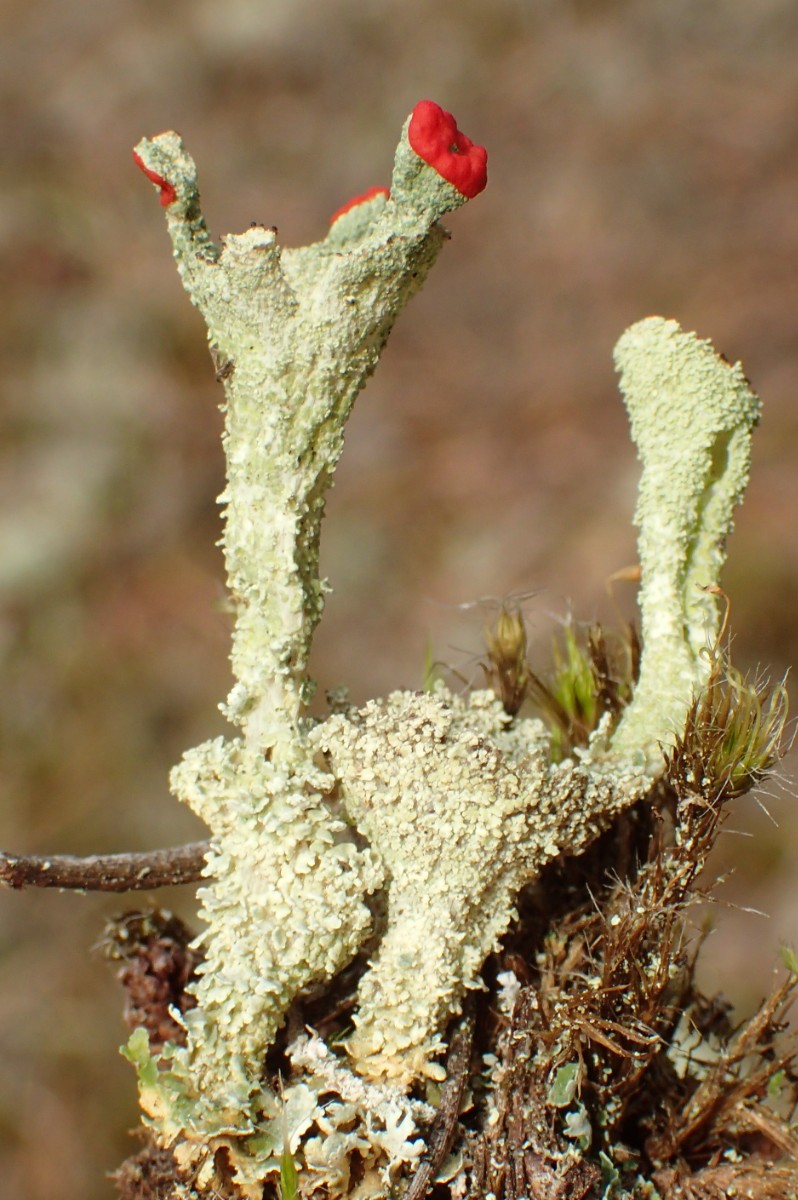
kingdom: Fungi
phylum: Ascomycota
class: Lecanoromycetes
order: Lecanorales
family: Cladoniaceae
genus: Cladonia
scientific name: Cladonia diversa
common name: rød bægerlav
